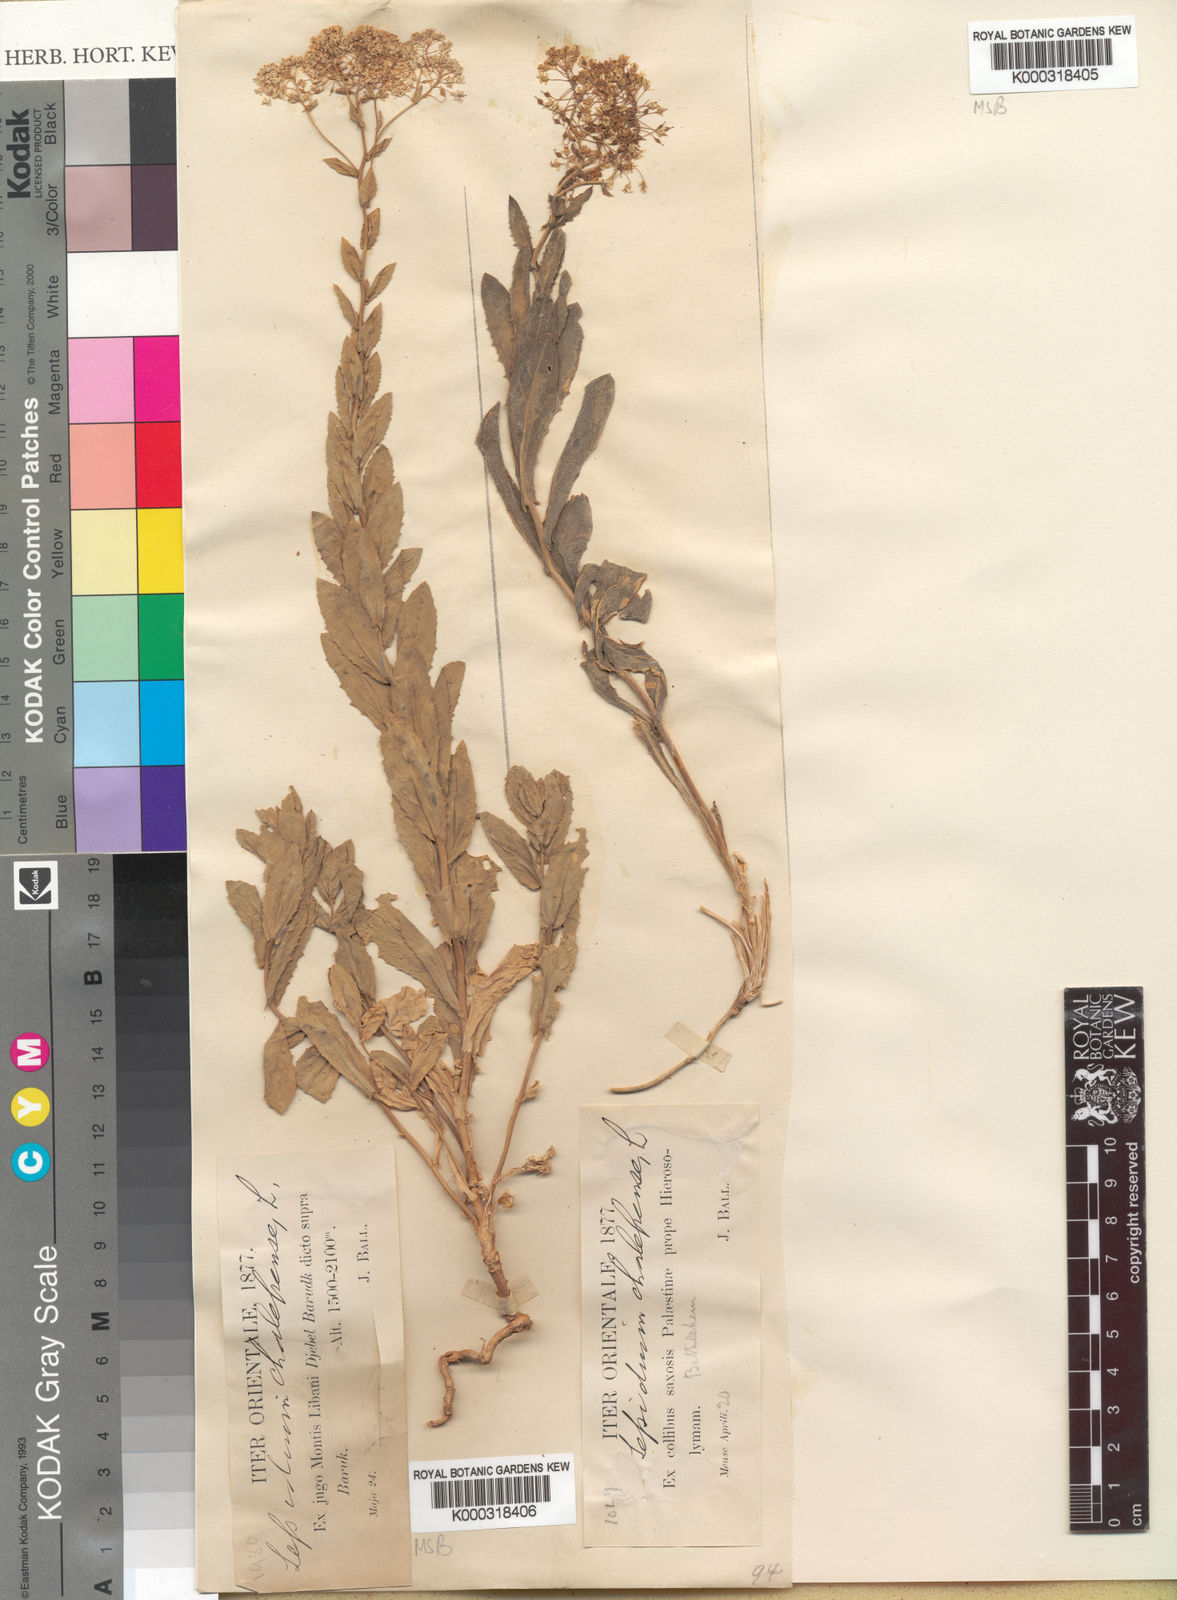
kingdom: Plantae
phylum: Tracheophyta
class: Magnoliopsida
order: Brassicales
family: Brassicaceae
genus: Lepidium
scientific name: Lepidium draba
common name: Hoary cress
